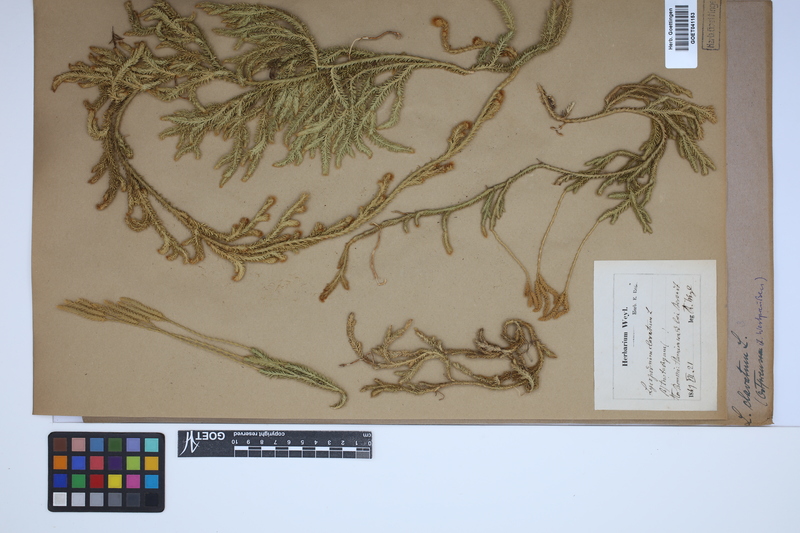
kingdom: Plantae
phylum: Tracheophyta
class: Lycopodiopsida
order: Lycopodiales
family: Lycopodiaceae
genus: Lycopodium
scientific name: Lycopodium clavatum
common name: Stag's-horn clubmoss
